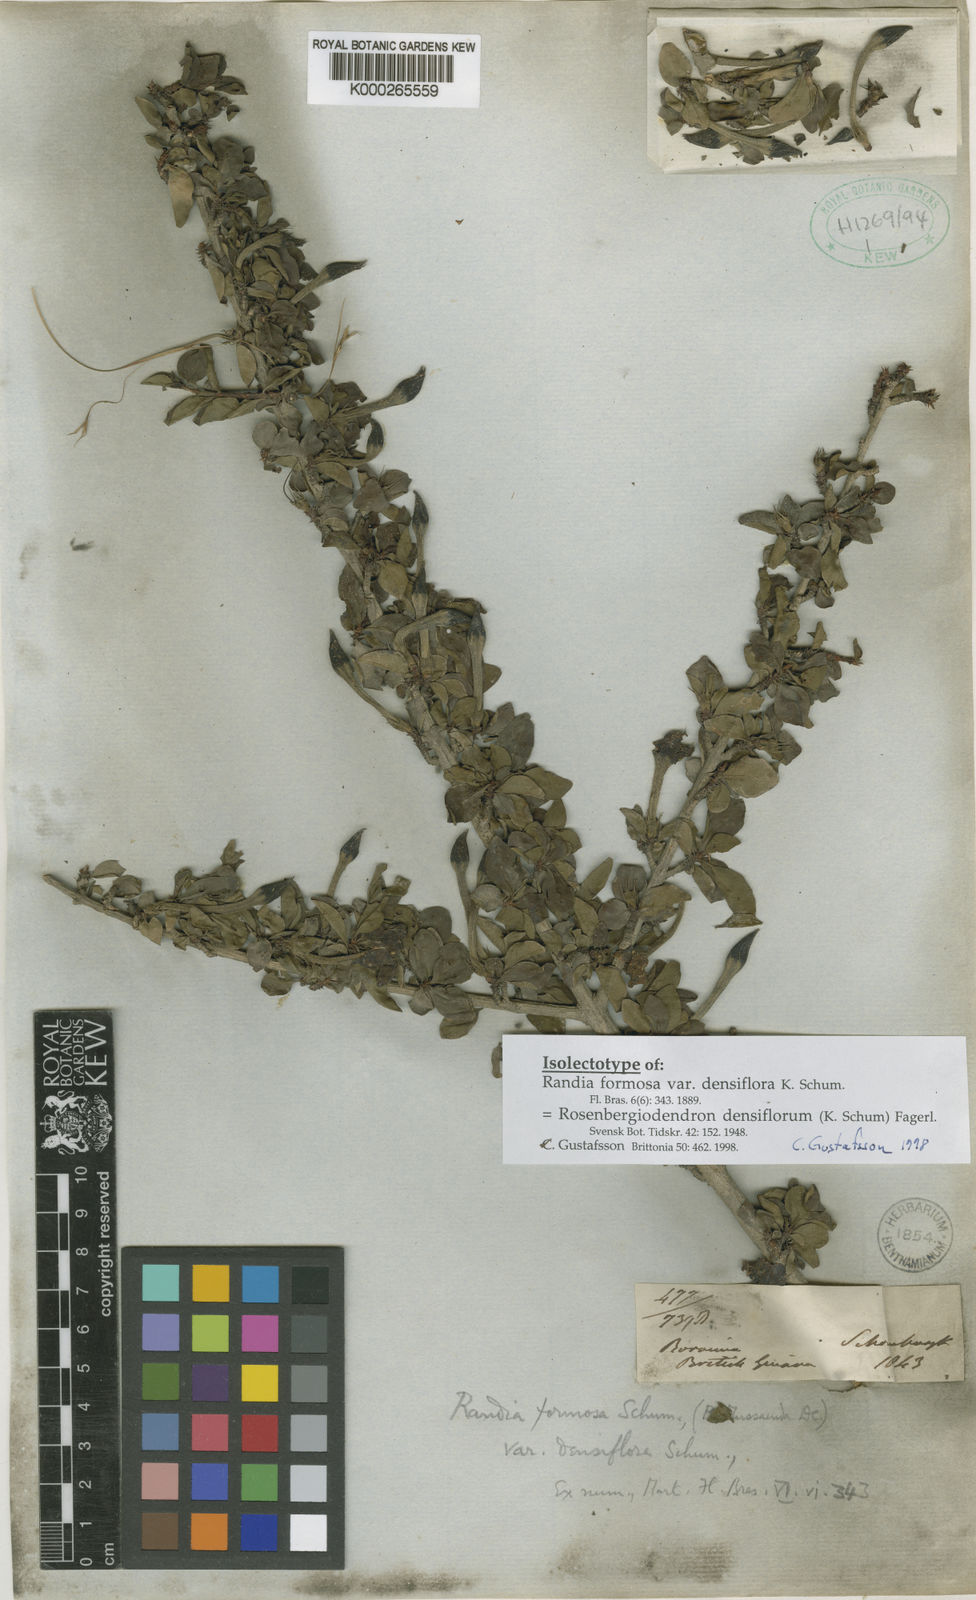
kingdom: Plantae
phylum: Tracheophyta
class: Magnoliopsida
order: Gentianales
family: Rubiaceae
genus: Rosenbergiodendron
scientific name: Rosenbergiodendron densiflorum
